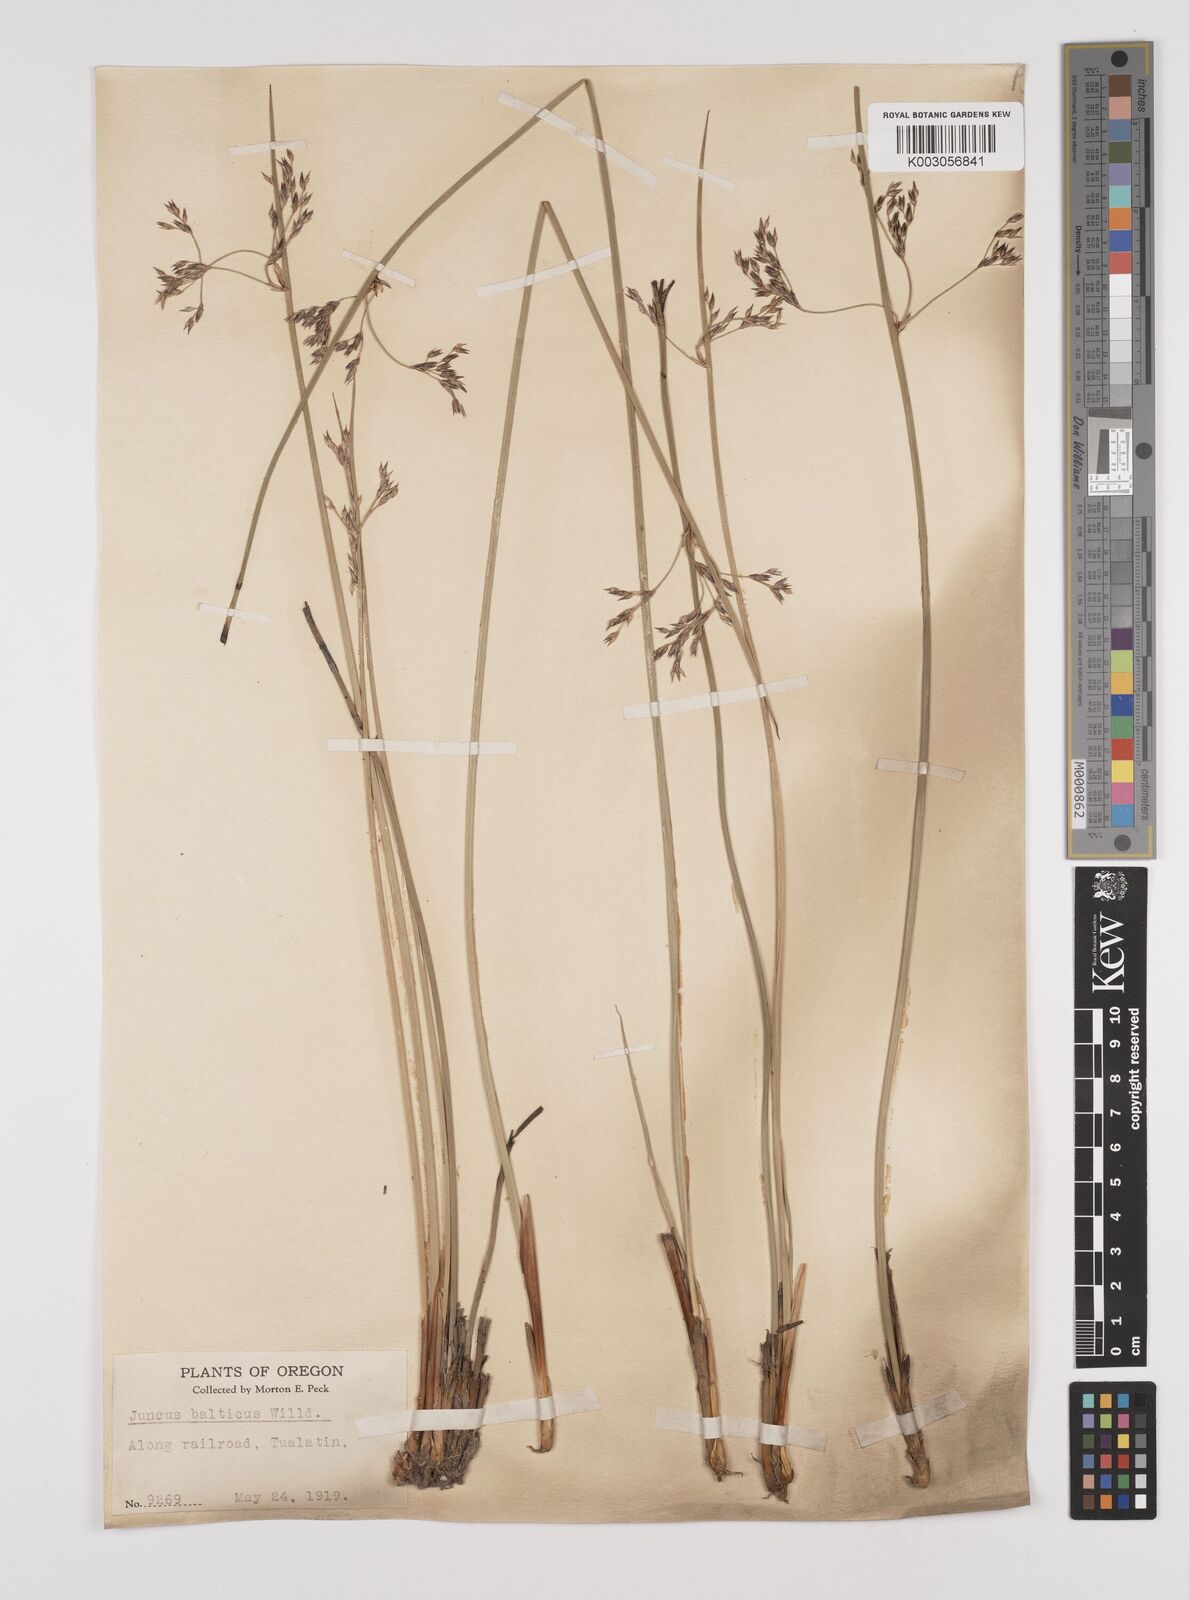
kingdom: Plantae
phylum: Tracheophyta
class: Liliopsida
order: Poales
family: Juncaceae
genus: Juncus
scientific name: Juncus balticus
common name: Baltic rush
